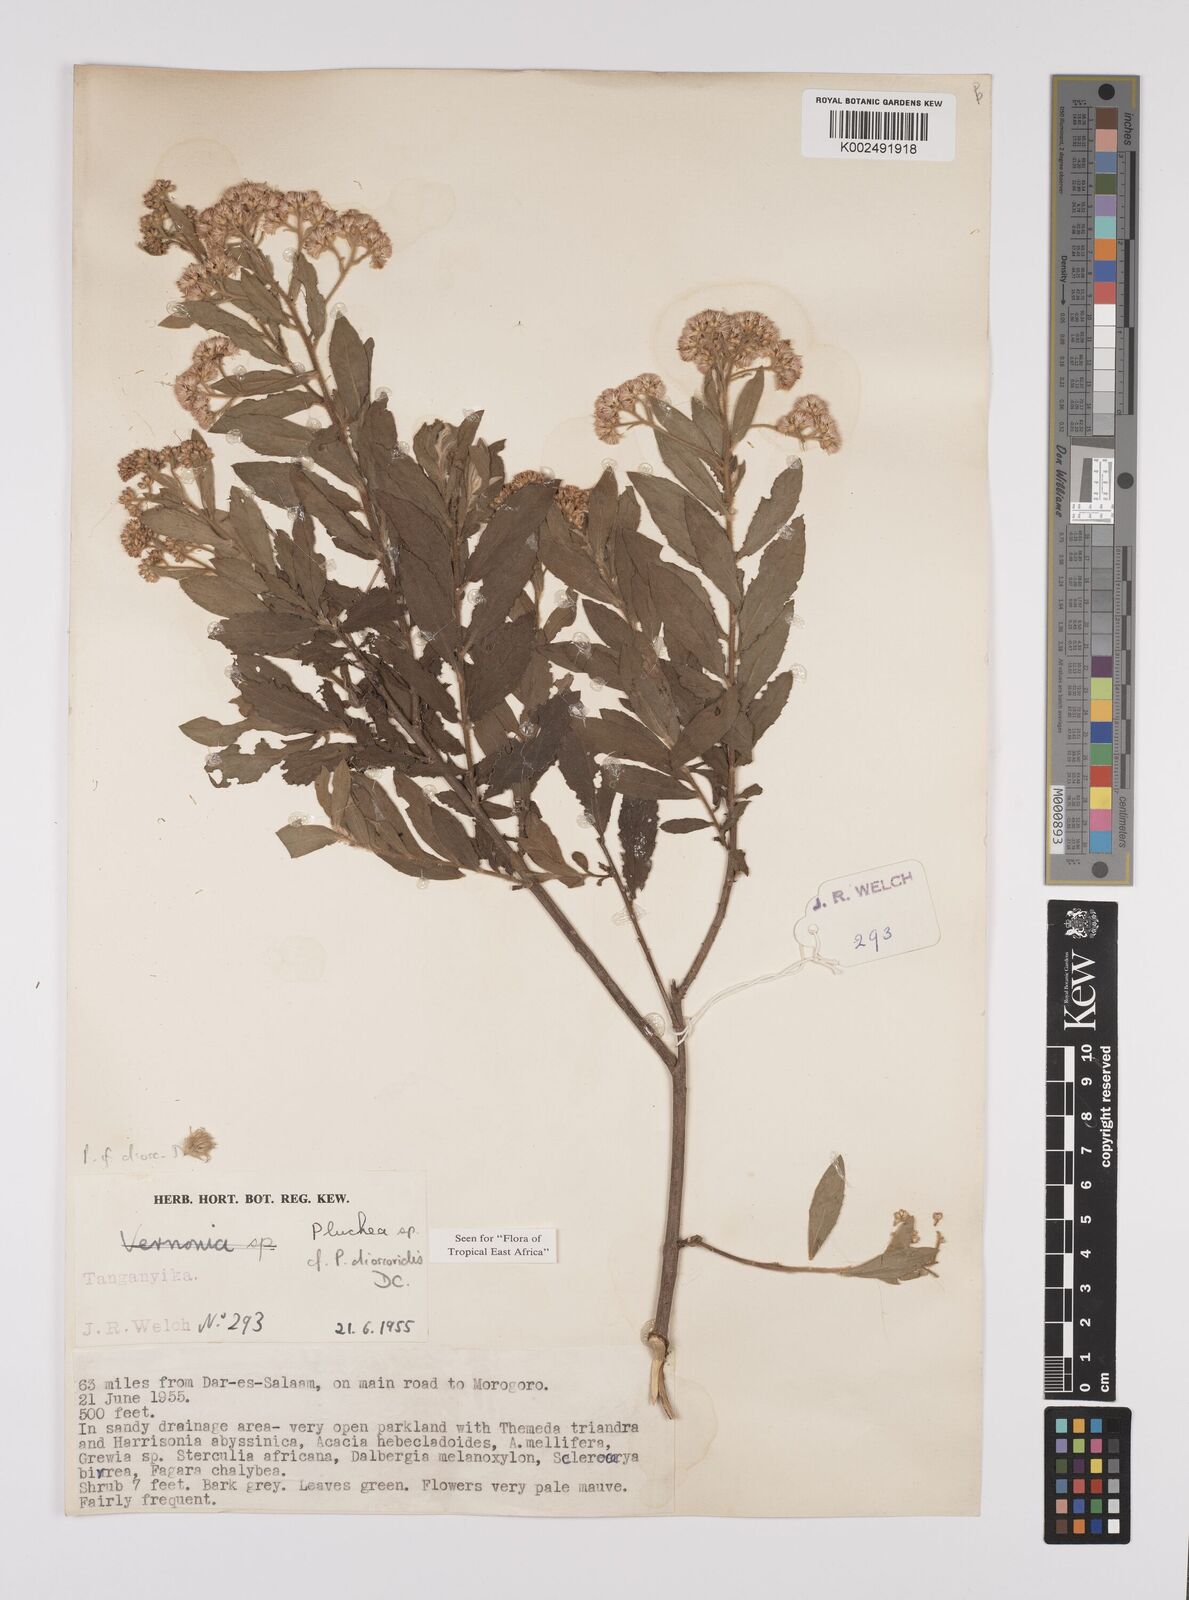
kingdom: Plantae
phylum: Tracheophyta
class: Magnoliopsida
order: Asterales
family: Asteraceae
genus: Pluchea
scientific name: Pluchea dioscoridis
